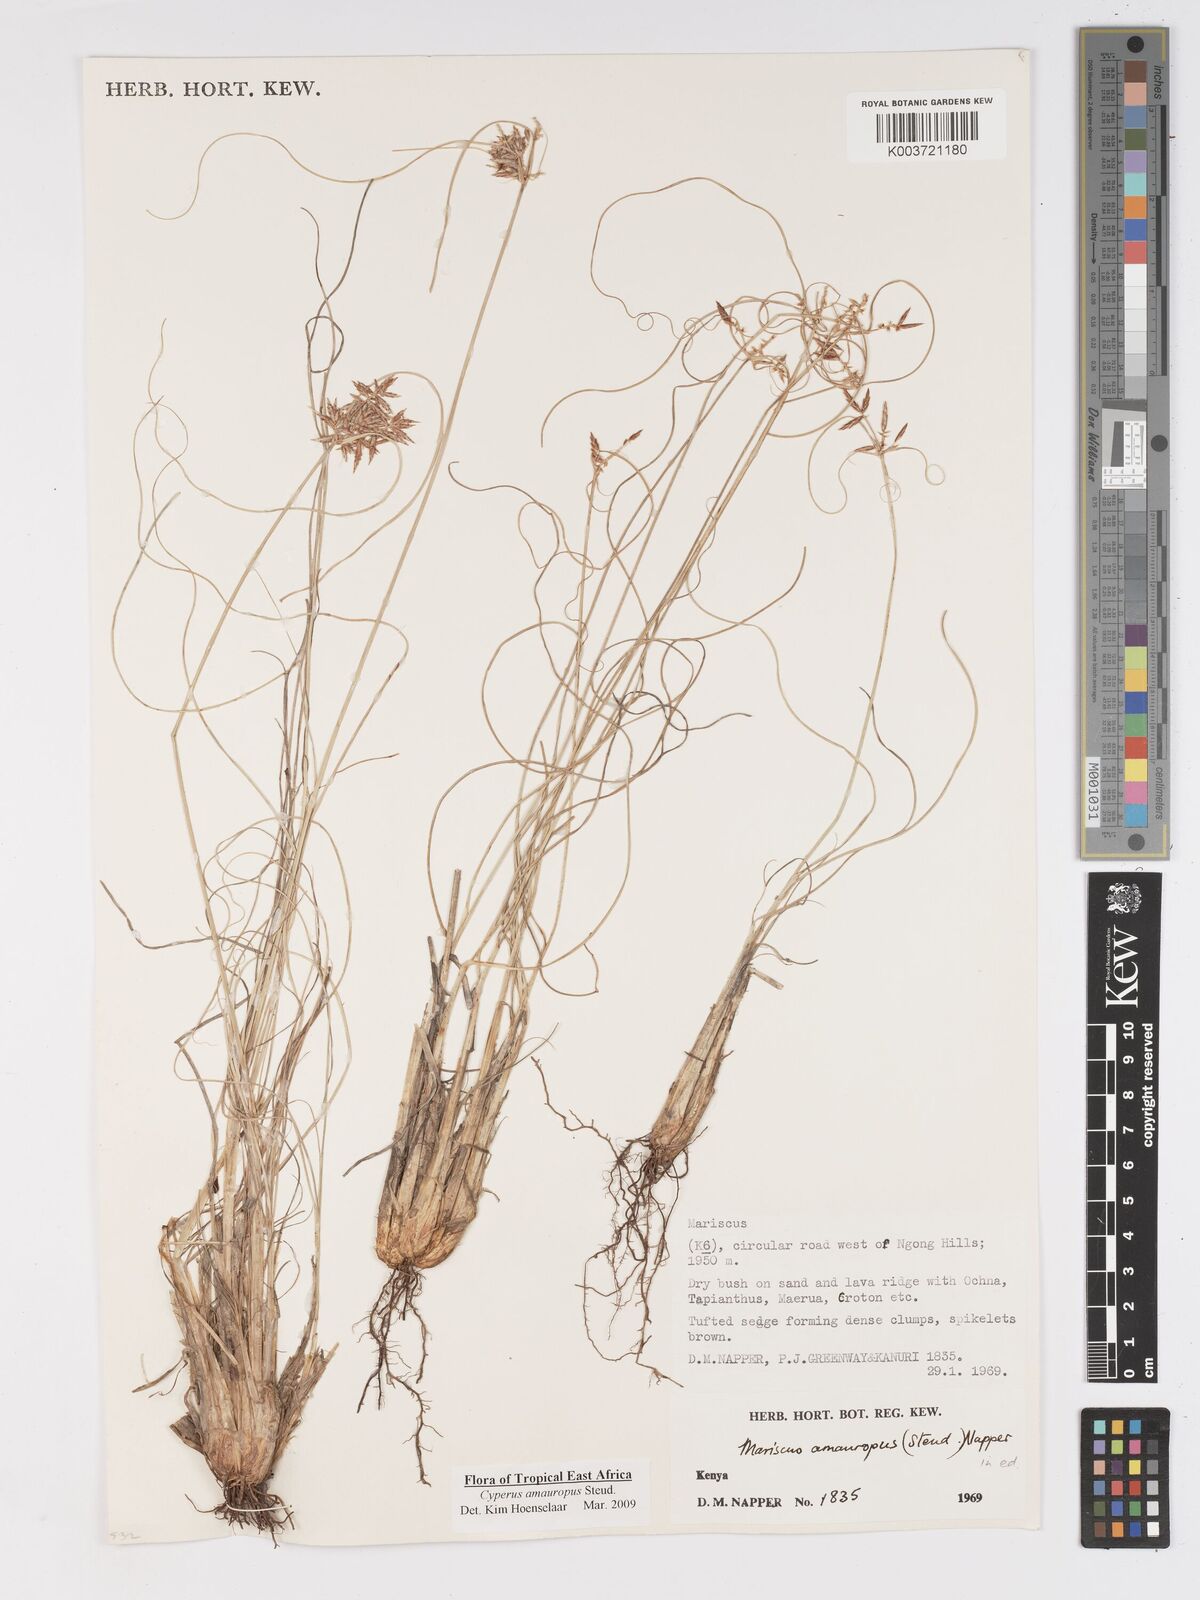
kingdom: Plantae
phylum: Tracheophyta
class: Liliopsida
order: Poales
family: Cyperaceae
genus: Cyperus
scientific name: Cyperus amauropus
